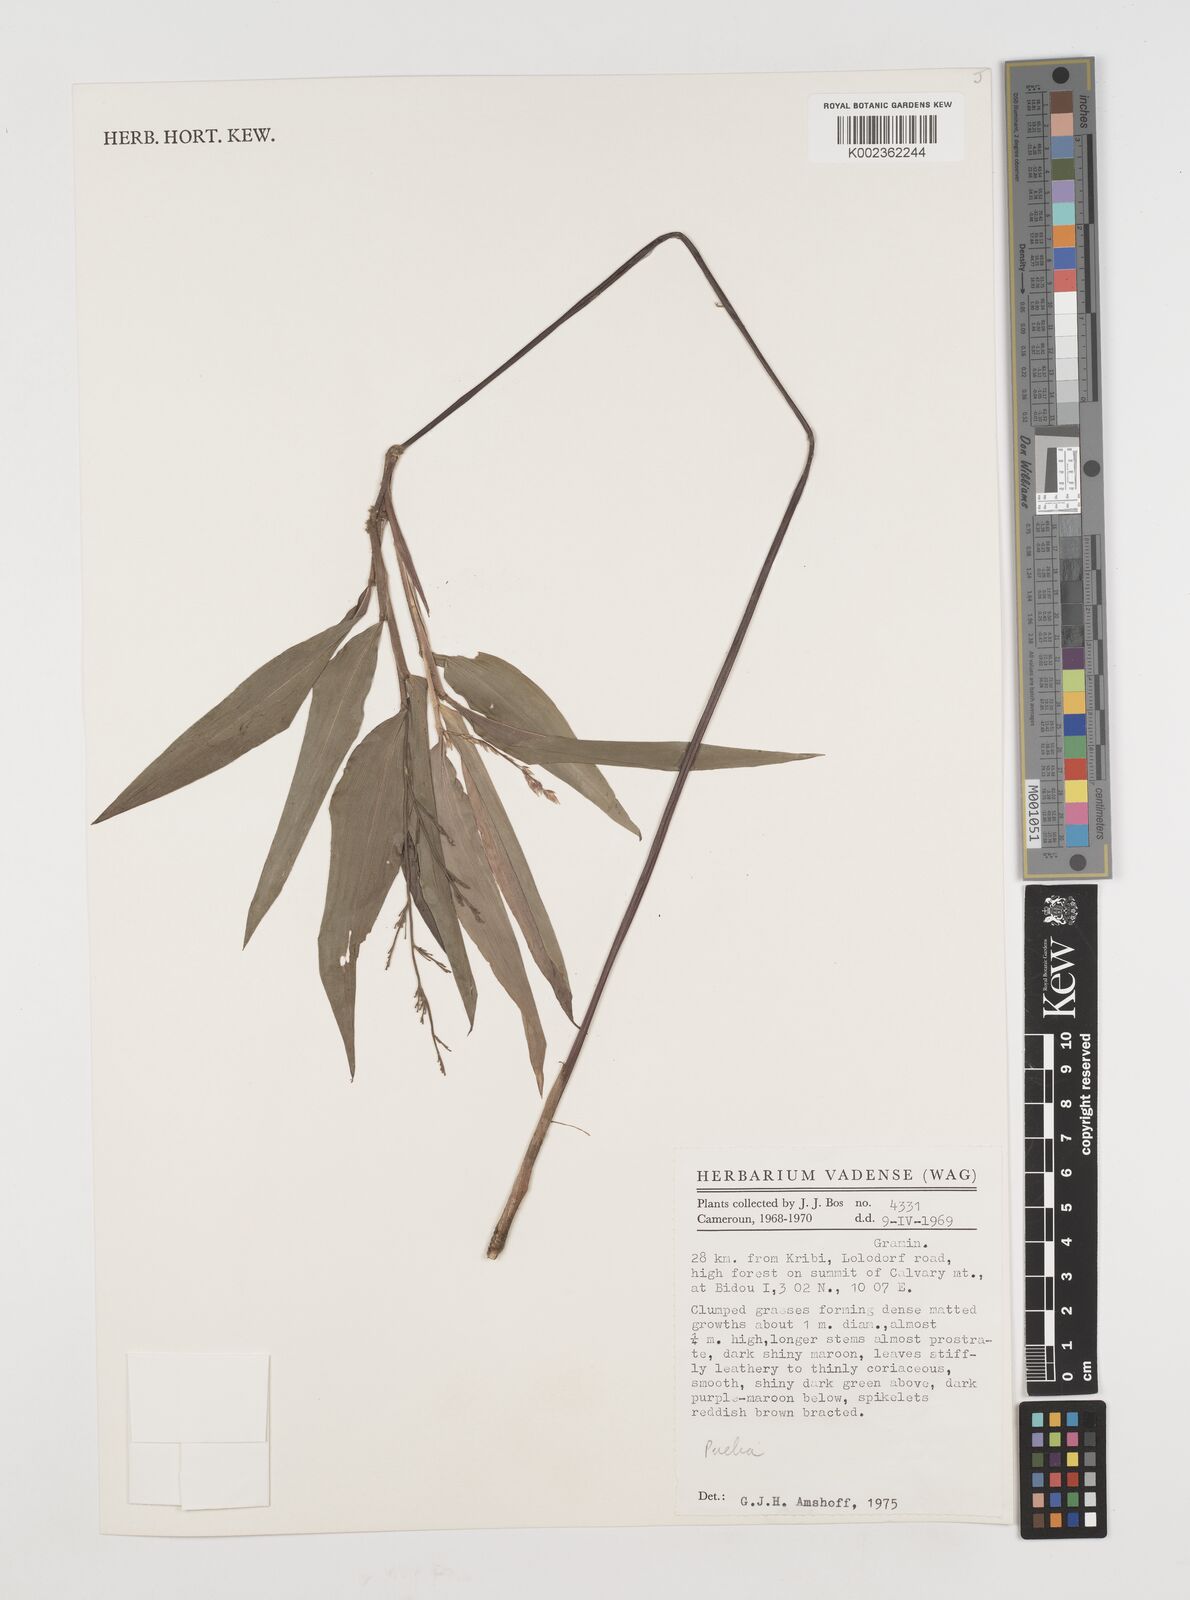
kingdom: Plantae
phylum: Tracheophyta
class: Liliopsida
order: Poales
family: Poaceae
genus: Puelia
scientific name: Puelia olyriformis
